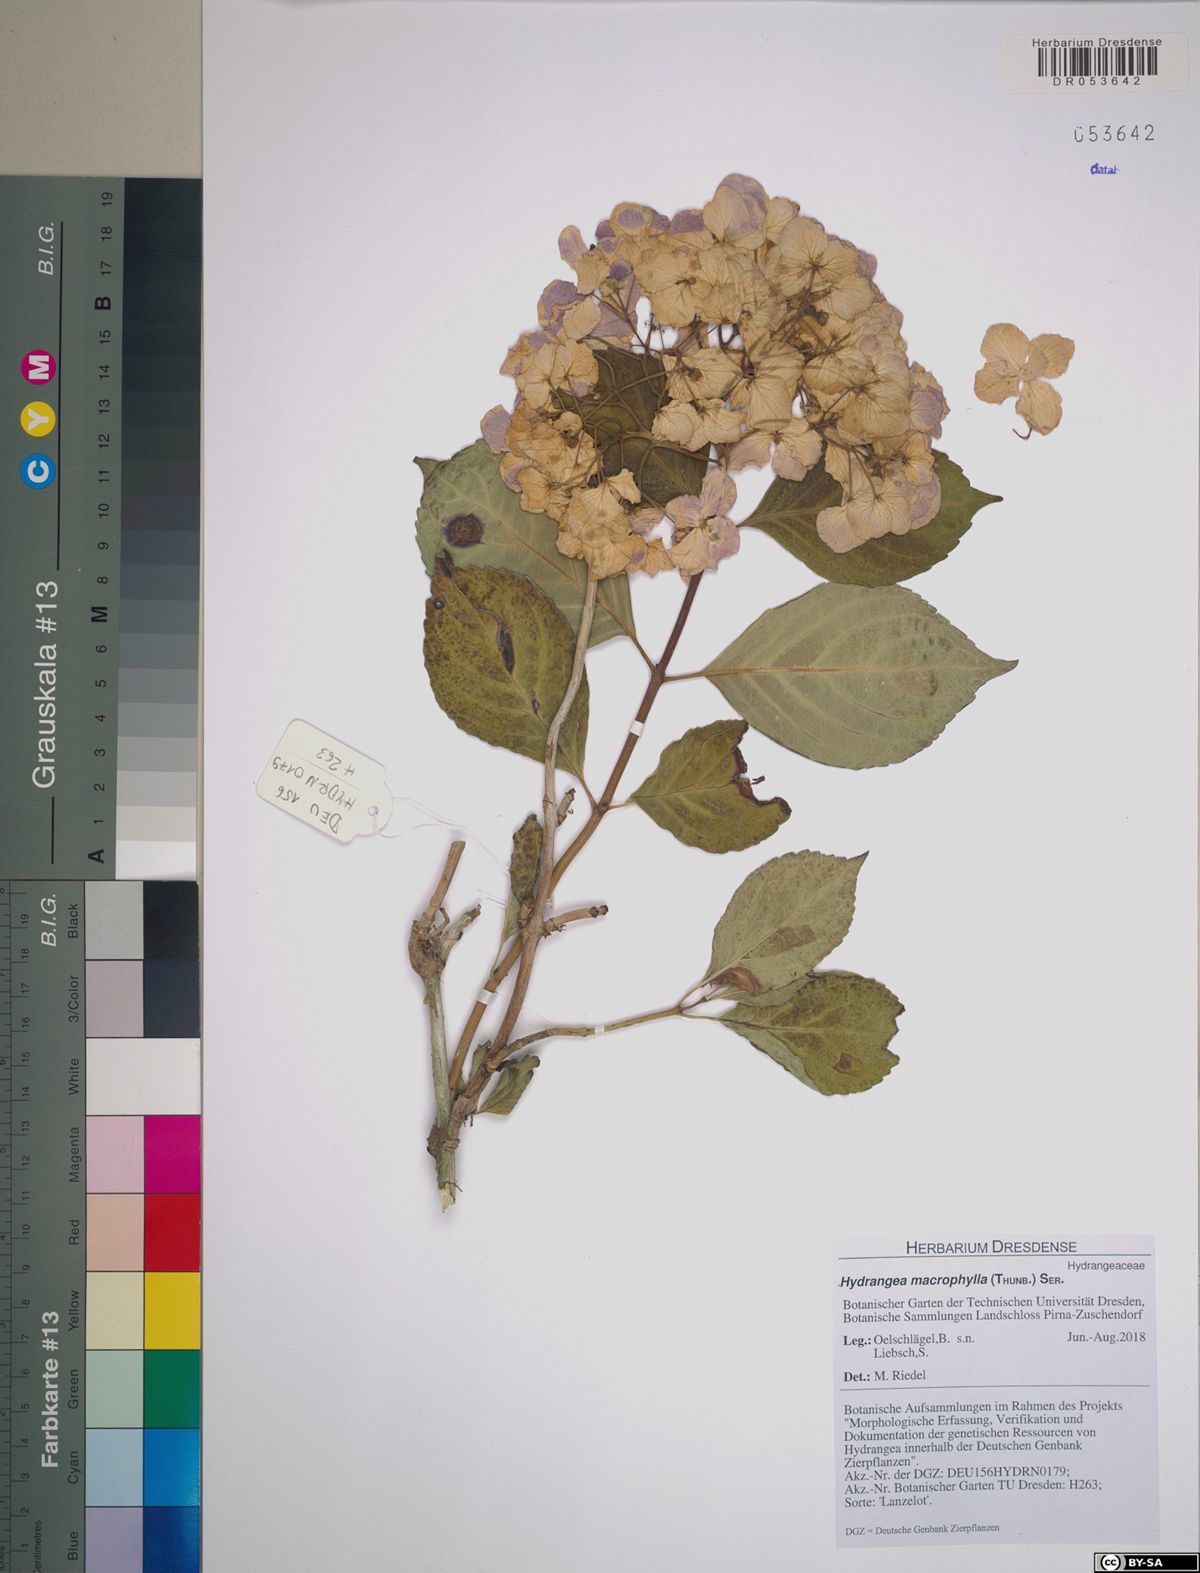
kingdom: Plantae
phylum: Tracheophyta
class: Magnoliopsida
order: Cornales
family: Hydrangeaceae
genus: Hydrangea
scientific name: Hydrangea macrophylla
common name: Hydrangea
